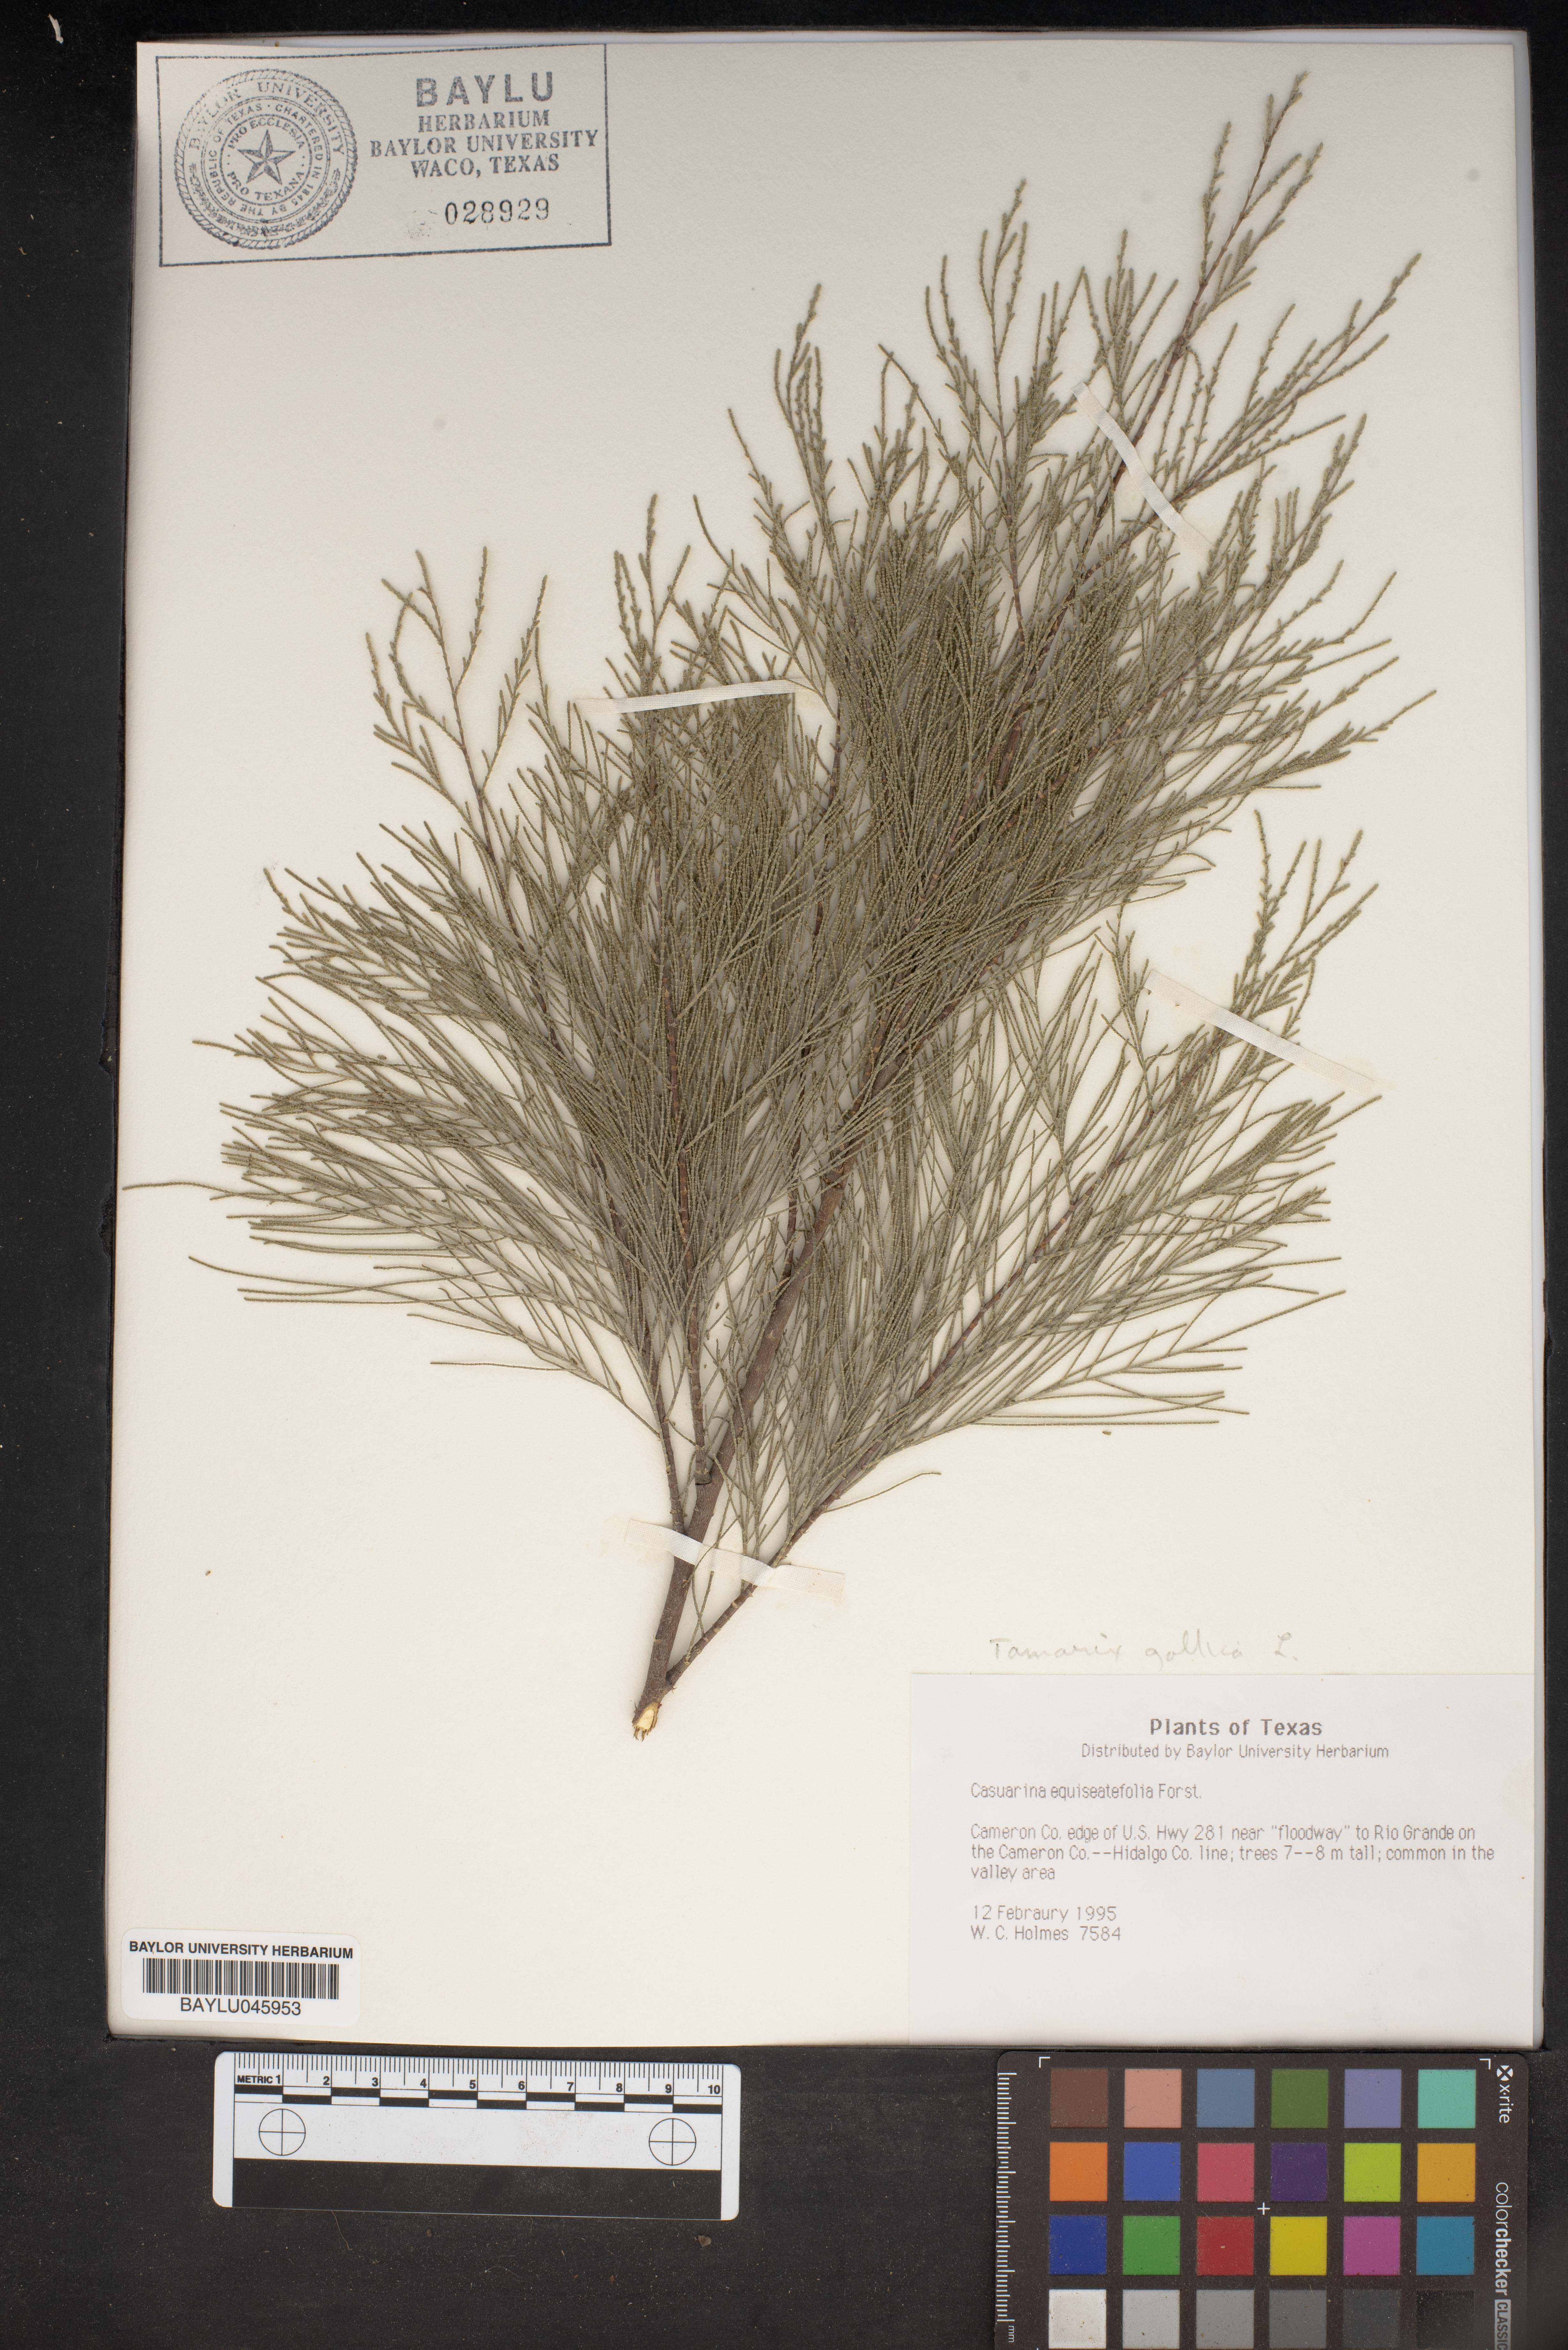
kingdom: Plantae
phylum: Tracheophyta
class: Magnoliopsida
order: Fagales
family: Casuarinaceae
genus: Casuarina
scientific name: Casuarina equisetifolia
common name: Beach sheoak
